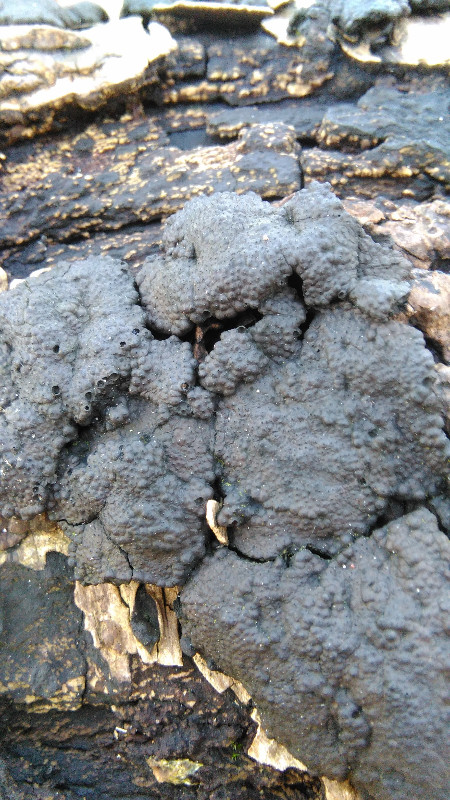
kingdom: Fungi
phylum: Ascomycota
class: Sordariomycetes
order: Xylariales
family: Hypoxylaceae
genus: Jackrogersella
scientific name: Jackrogersella multiformis
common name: foranderlig kulbær
